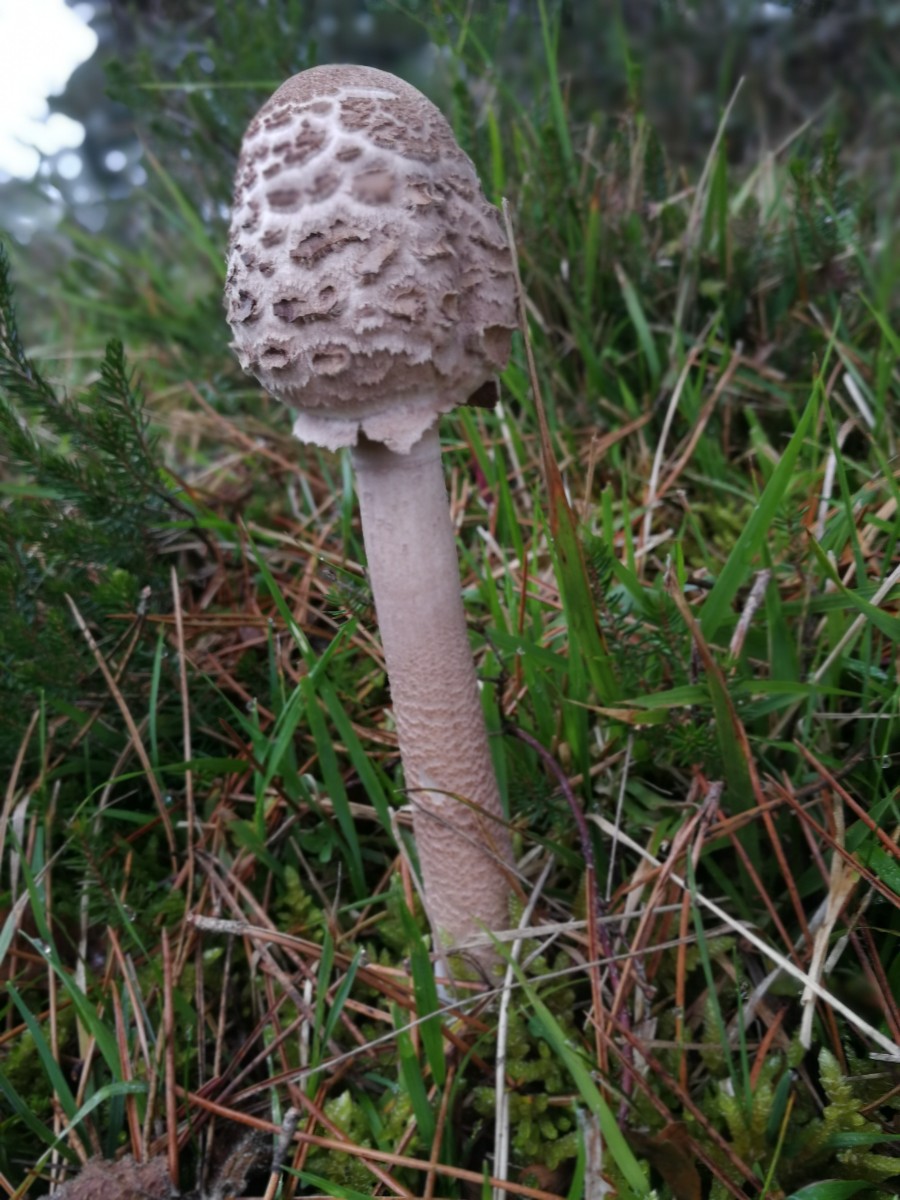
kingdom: Fungi
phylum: Basidiomycota
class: Agaricomycetes
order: Agaricales
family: Agaricaceae
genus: Macrolepiota
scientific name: Macrolepiota procera
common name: stor kæmpeparasolhat
